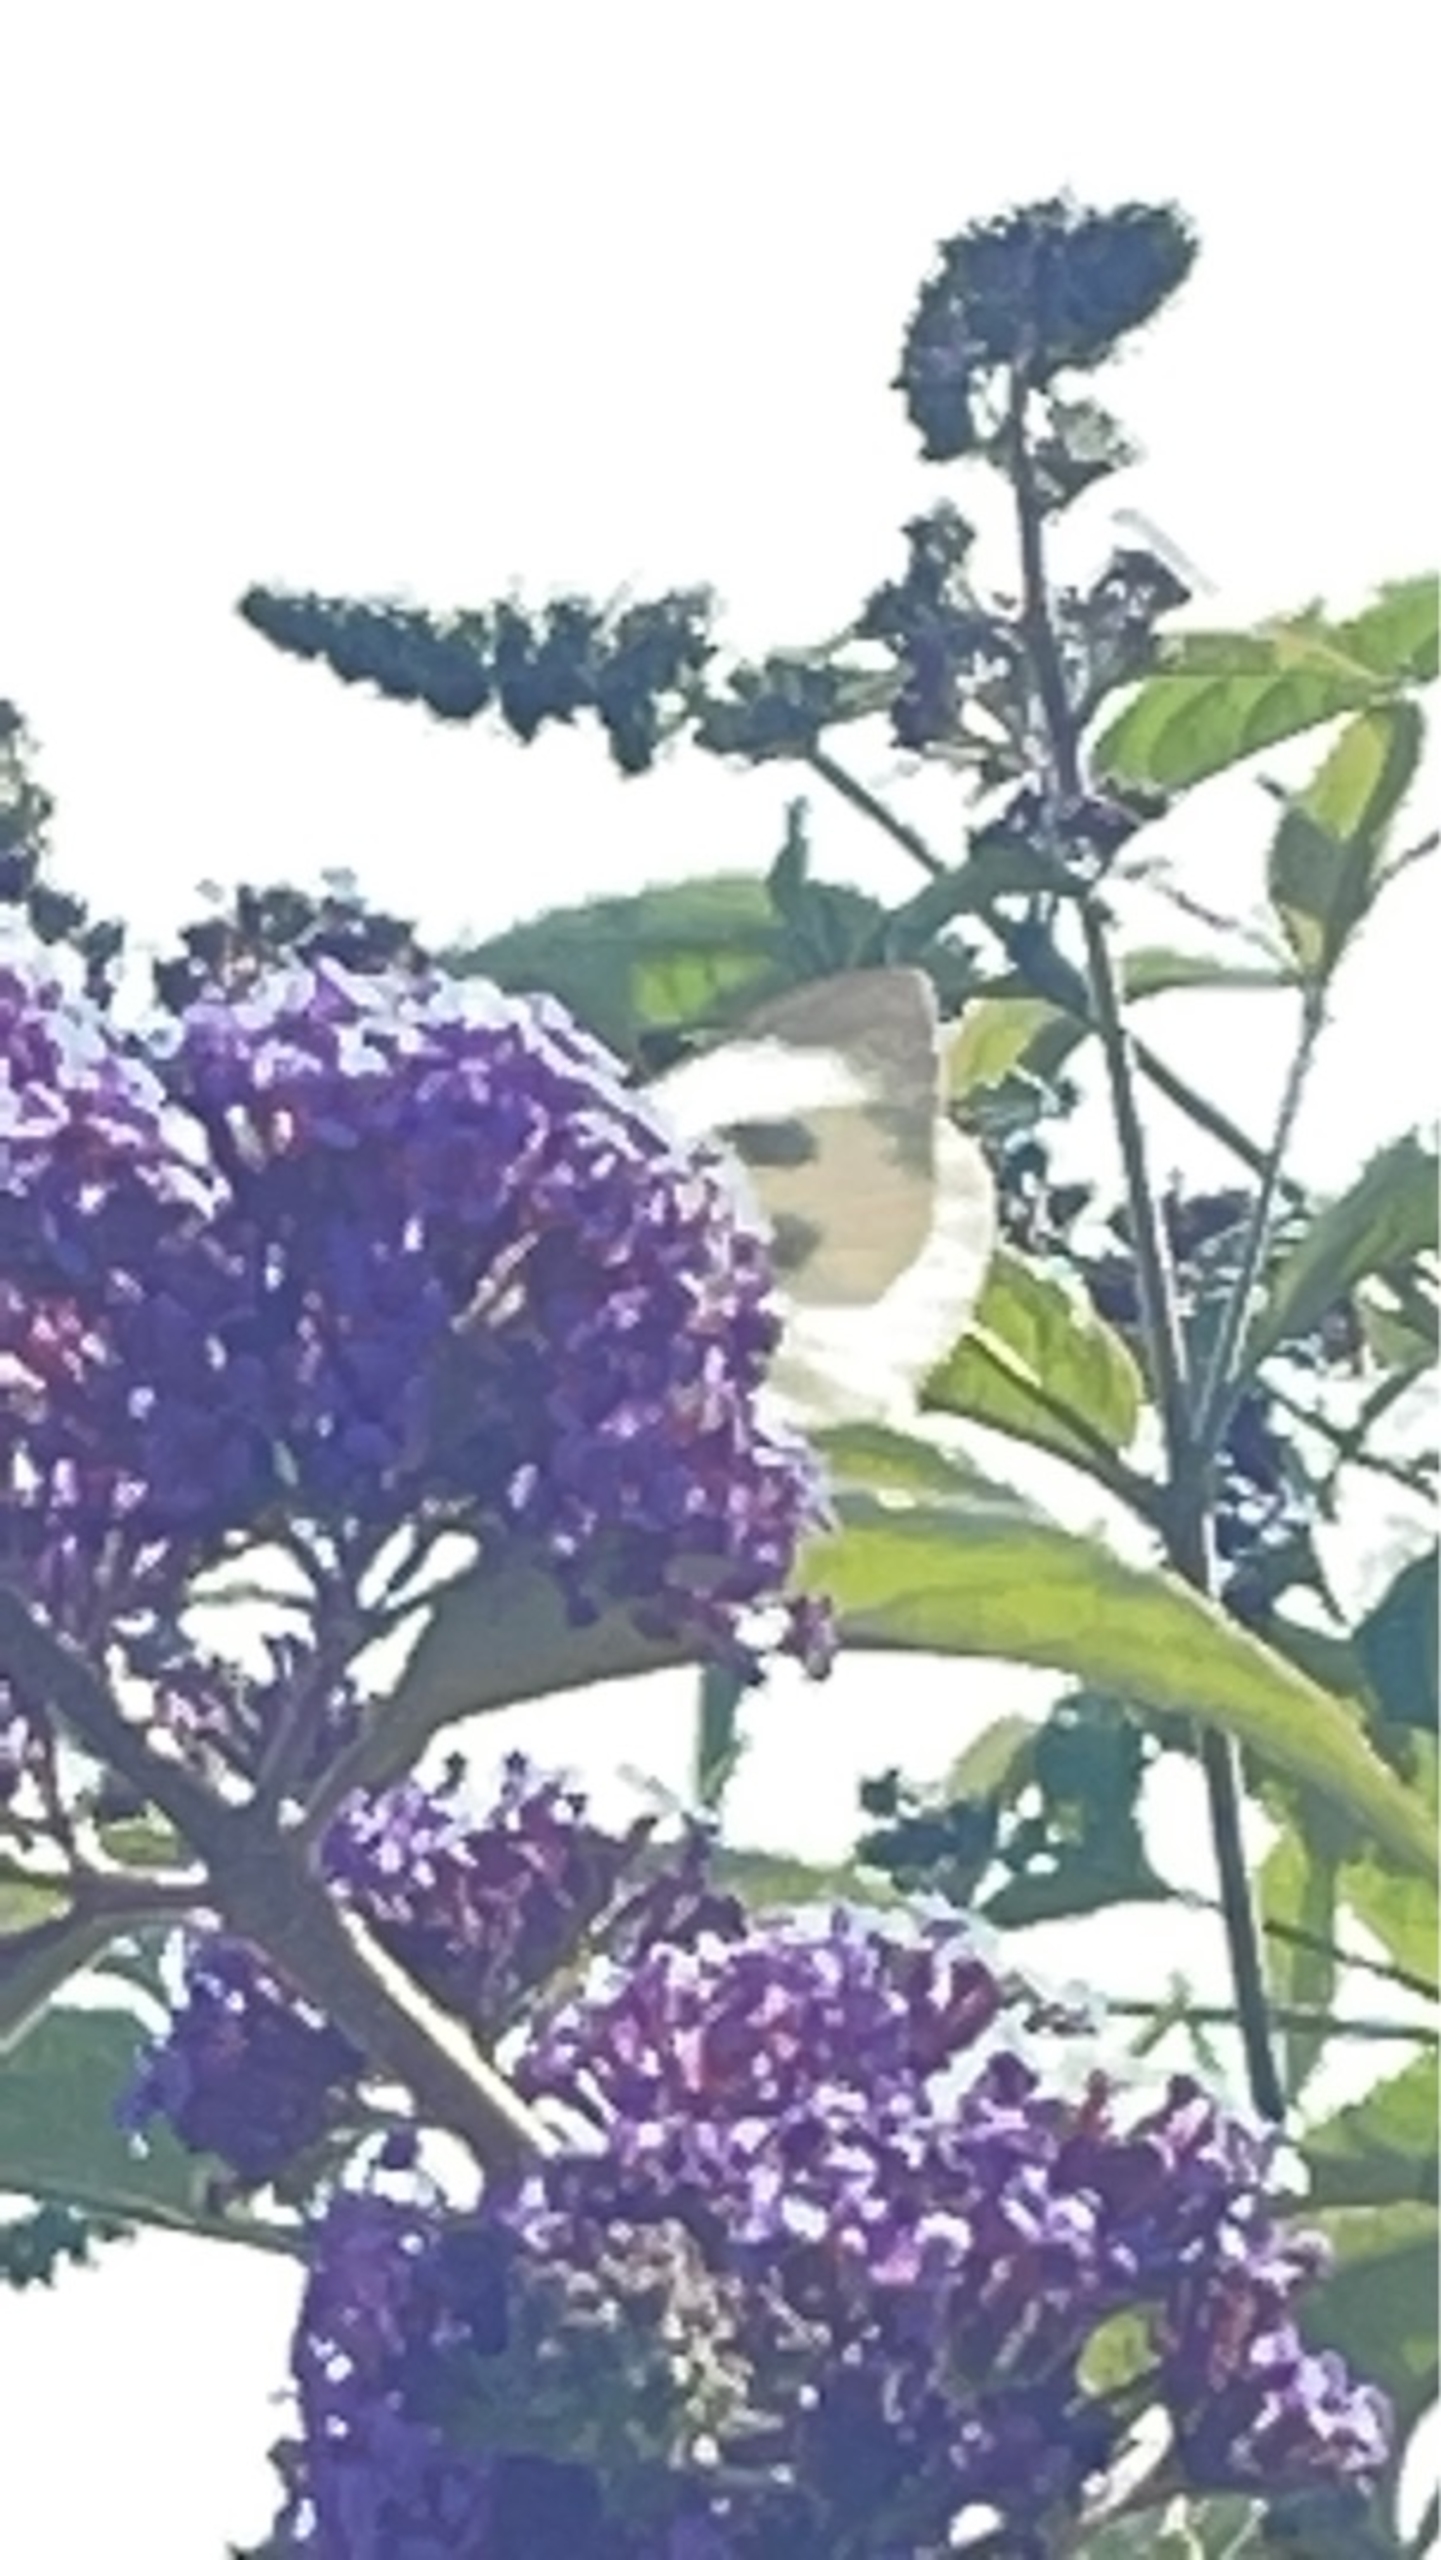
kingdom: Animalia
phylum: Arthropoda
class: Insecta
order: Lepidoptera
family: Pieridae
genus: Pieris
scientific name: Pieris brassicae
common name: Stor kålsommerfugl
